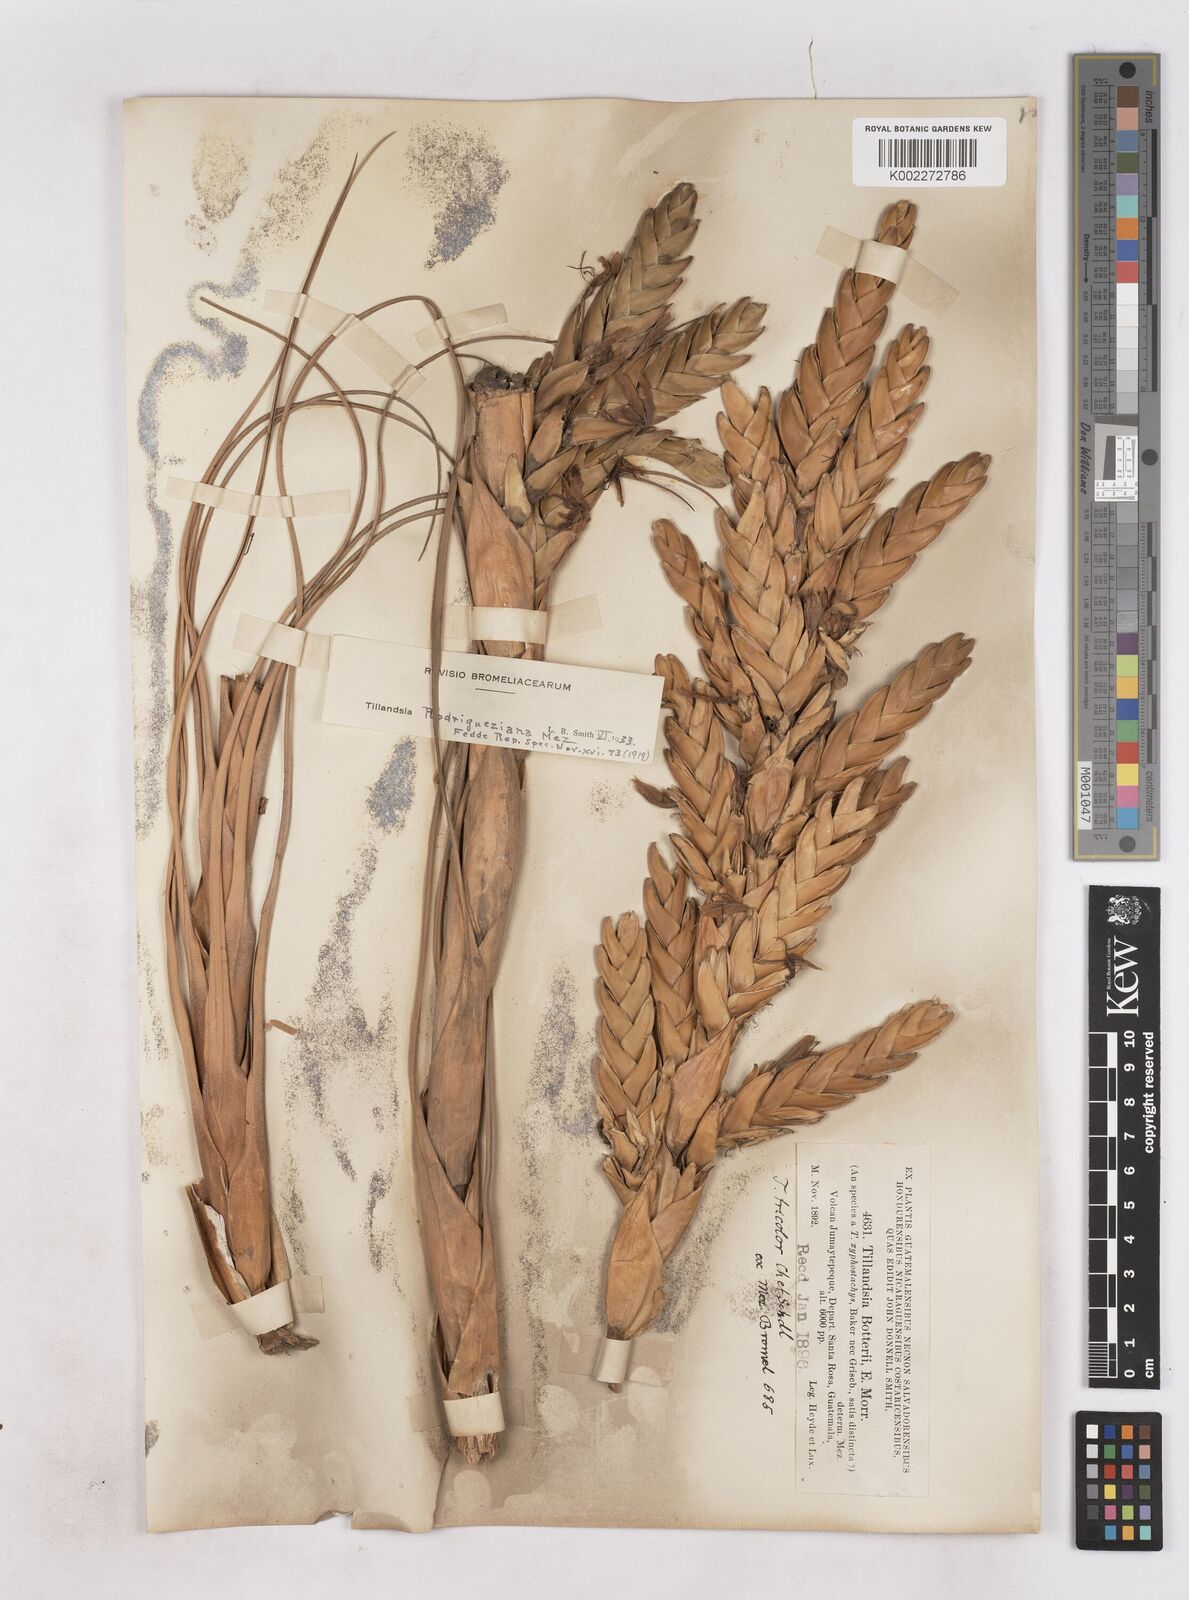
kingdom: Plantae
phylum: Tracheophyta
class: Liliopsida
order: Poales
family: Bromeliaceae
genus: Tillandsia
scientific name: Tillandsia rodrigueziana
